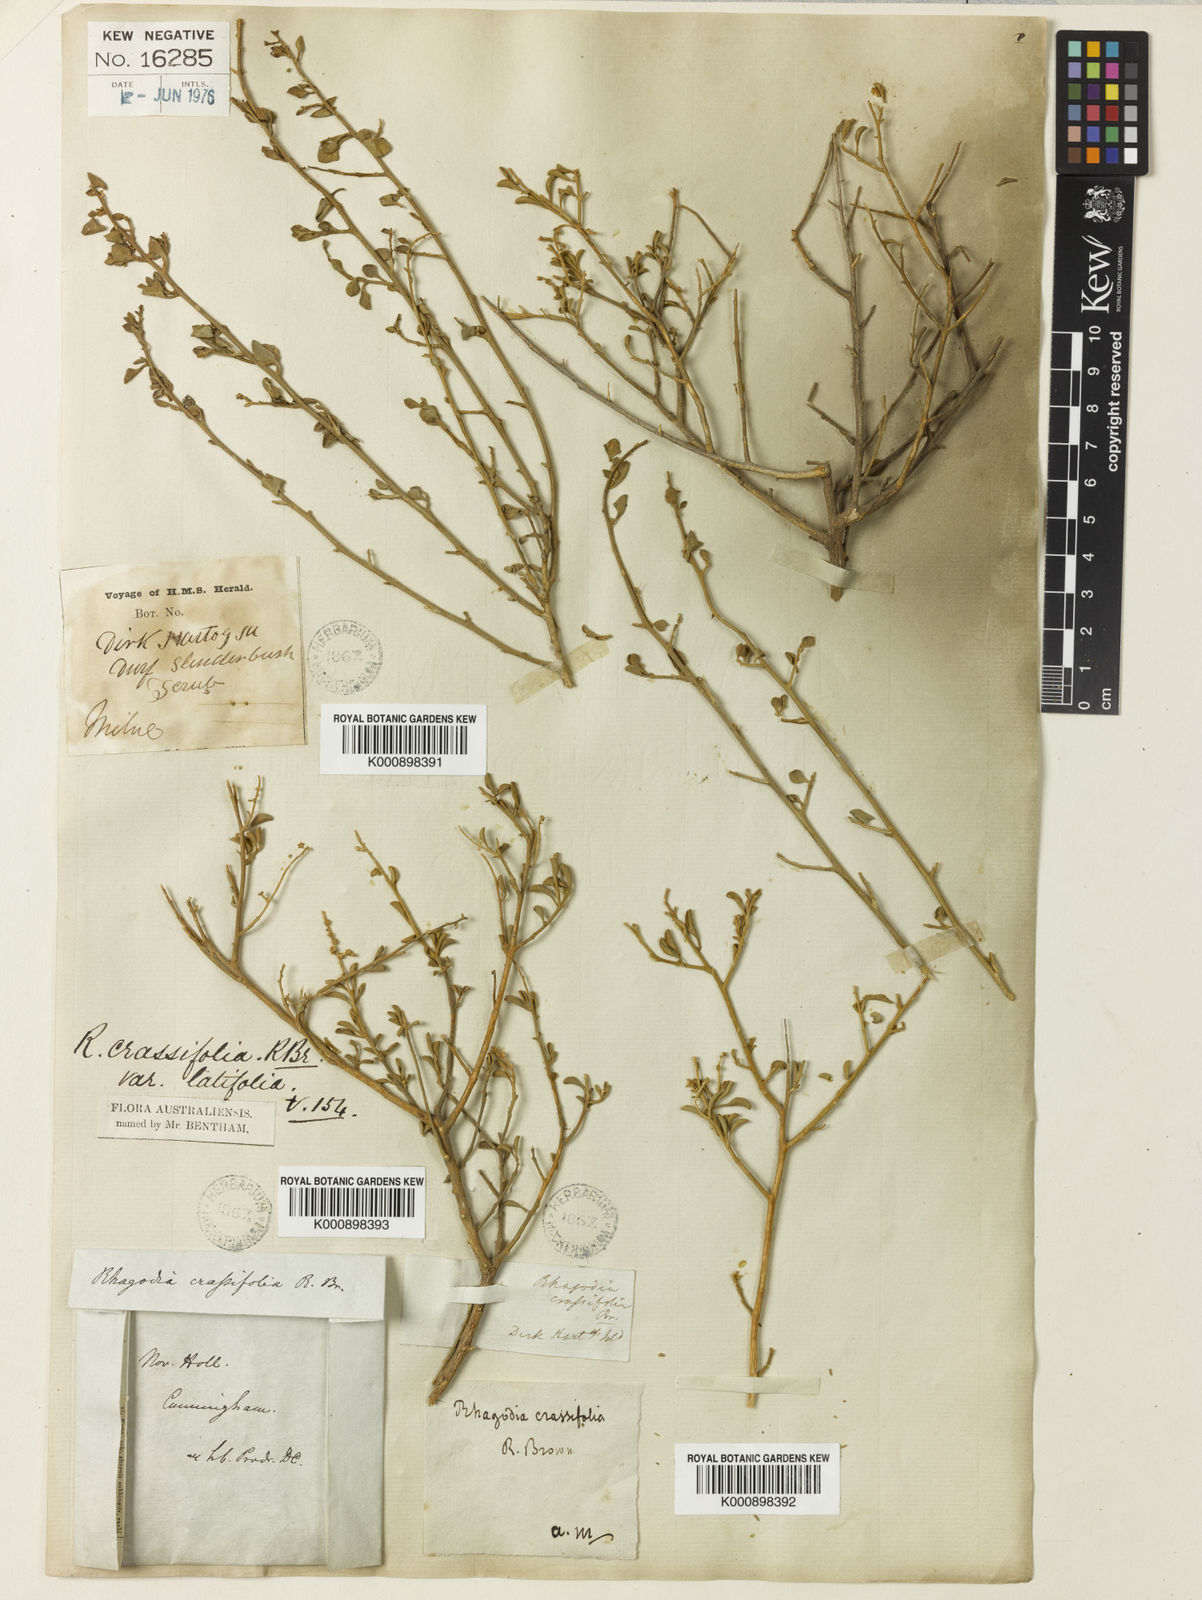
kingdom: Plantae
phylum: Tracheophyta
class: Magnoliopsida
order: Caryophyllales
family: Amaranthaceae
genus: Chenopodium
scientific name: Chenopodium benthamii
